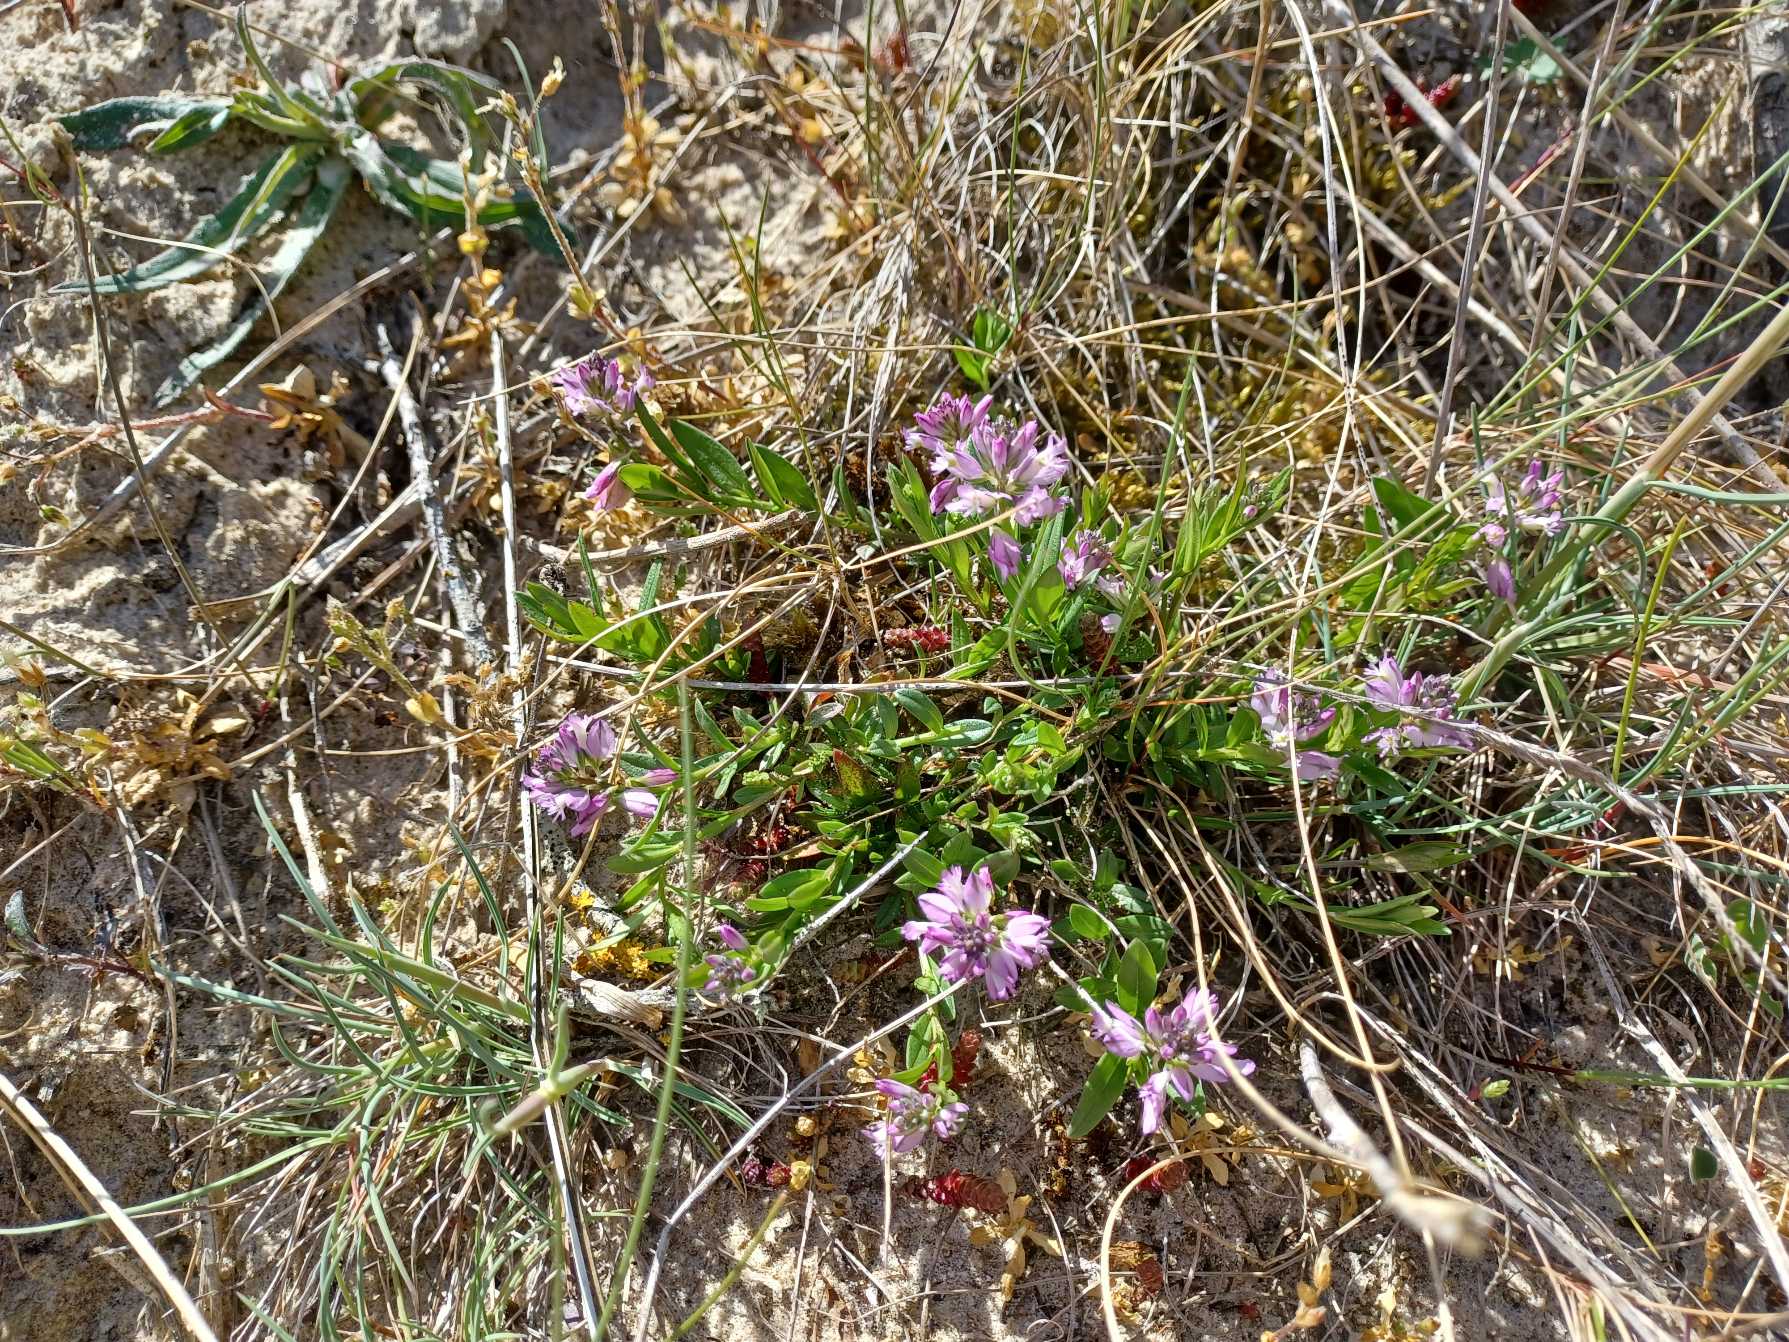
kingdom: Plantae
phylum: Tracheophyta
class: Magnoliopsida
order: Fabales
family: Polygalaceae
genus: Polygala
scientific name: Polygala vulgaris
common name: Almindelig mælkeurt
